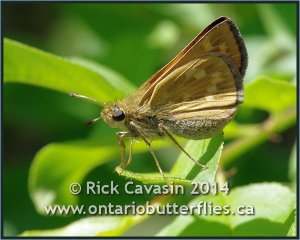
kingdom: Animalia
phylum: Arthropoda
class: Insecta
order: Lepidoptera
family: Hesperiidae
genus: Hesperia
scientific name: Hesperia sassacus
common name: Sassacus Skipper
